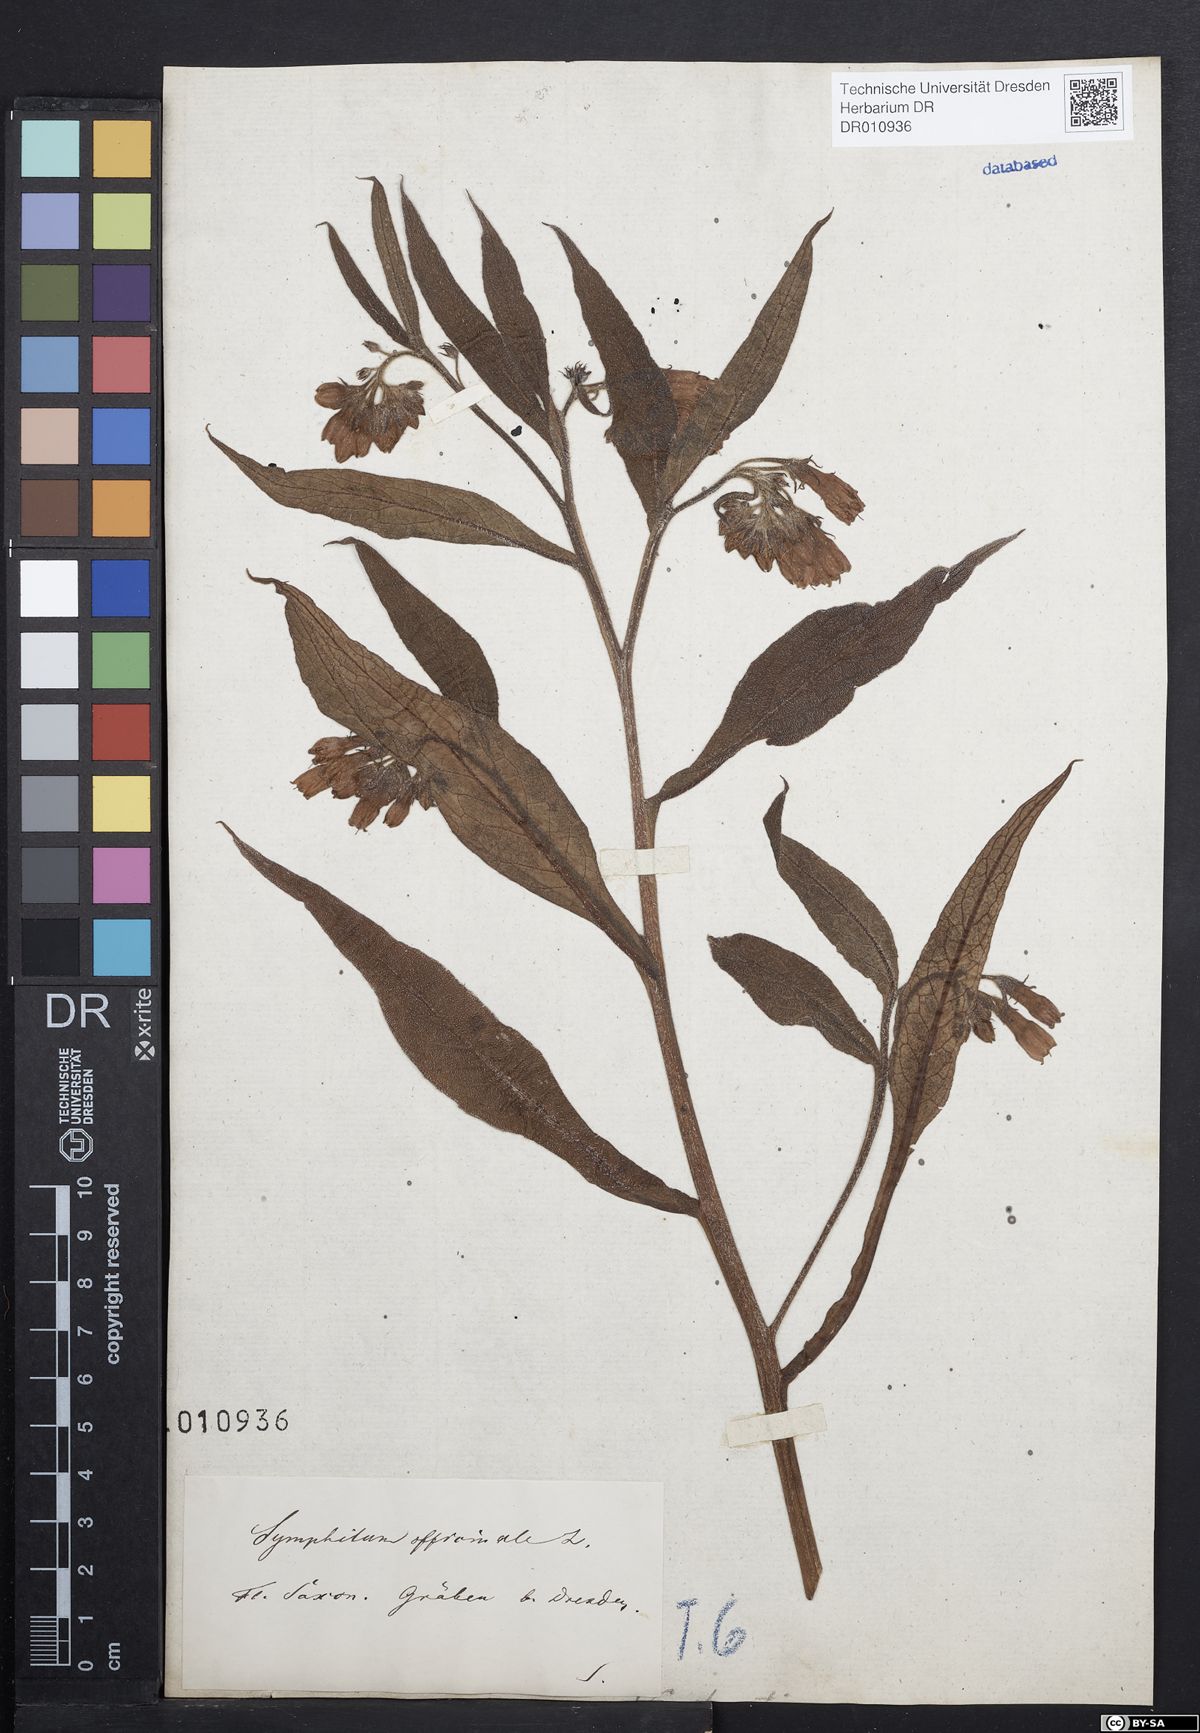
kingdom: Plantae
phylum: Tracheophyta
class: Magnoliopsida
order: Boraginales
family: Boraginaceae
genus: Symphytum
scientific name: Symphytum officinale
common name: Common comfrey
